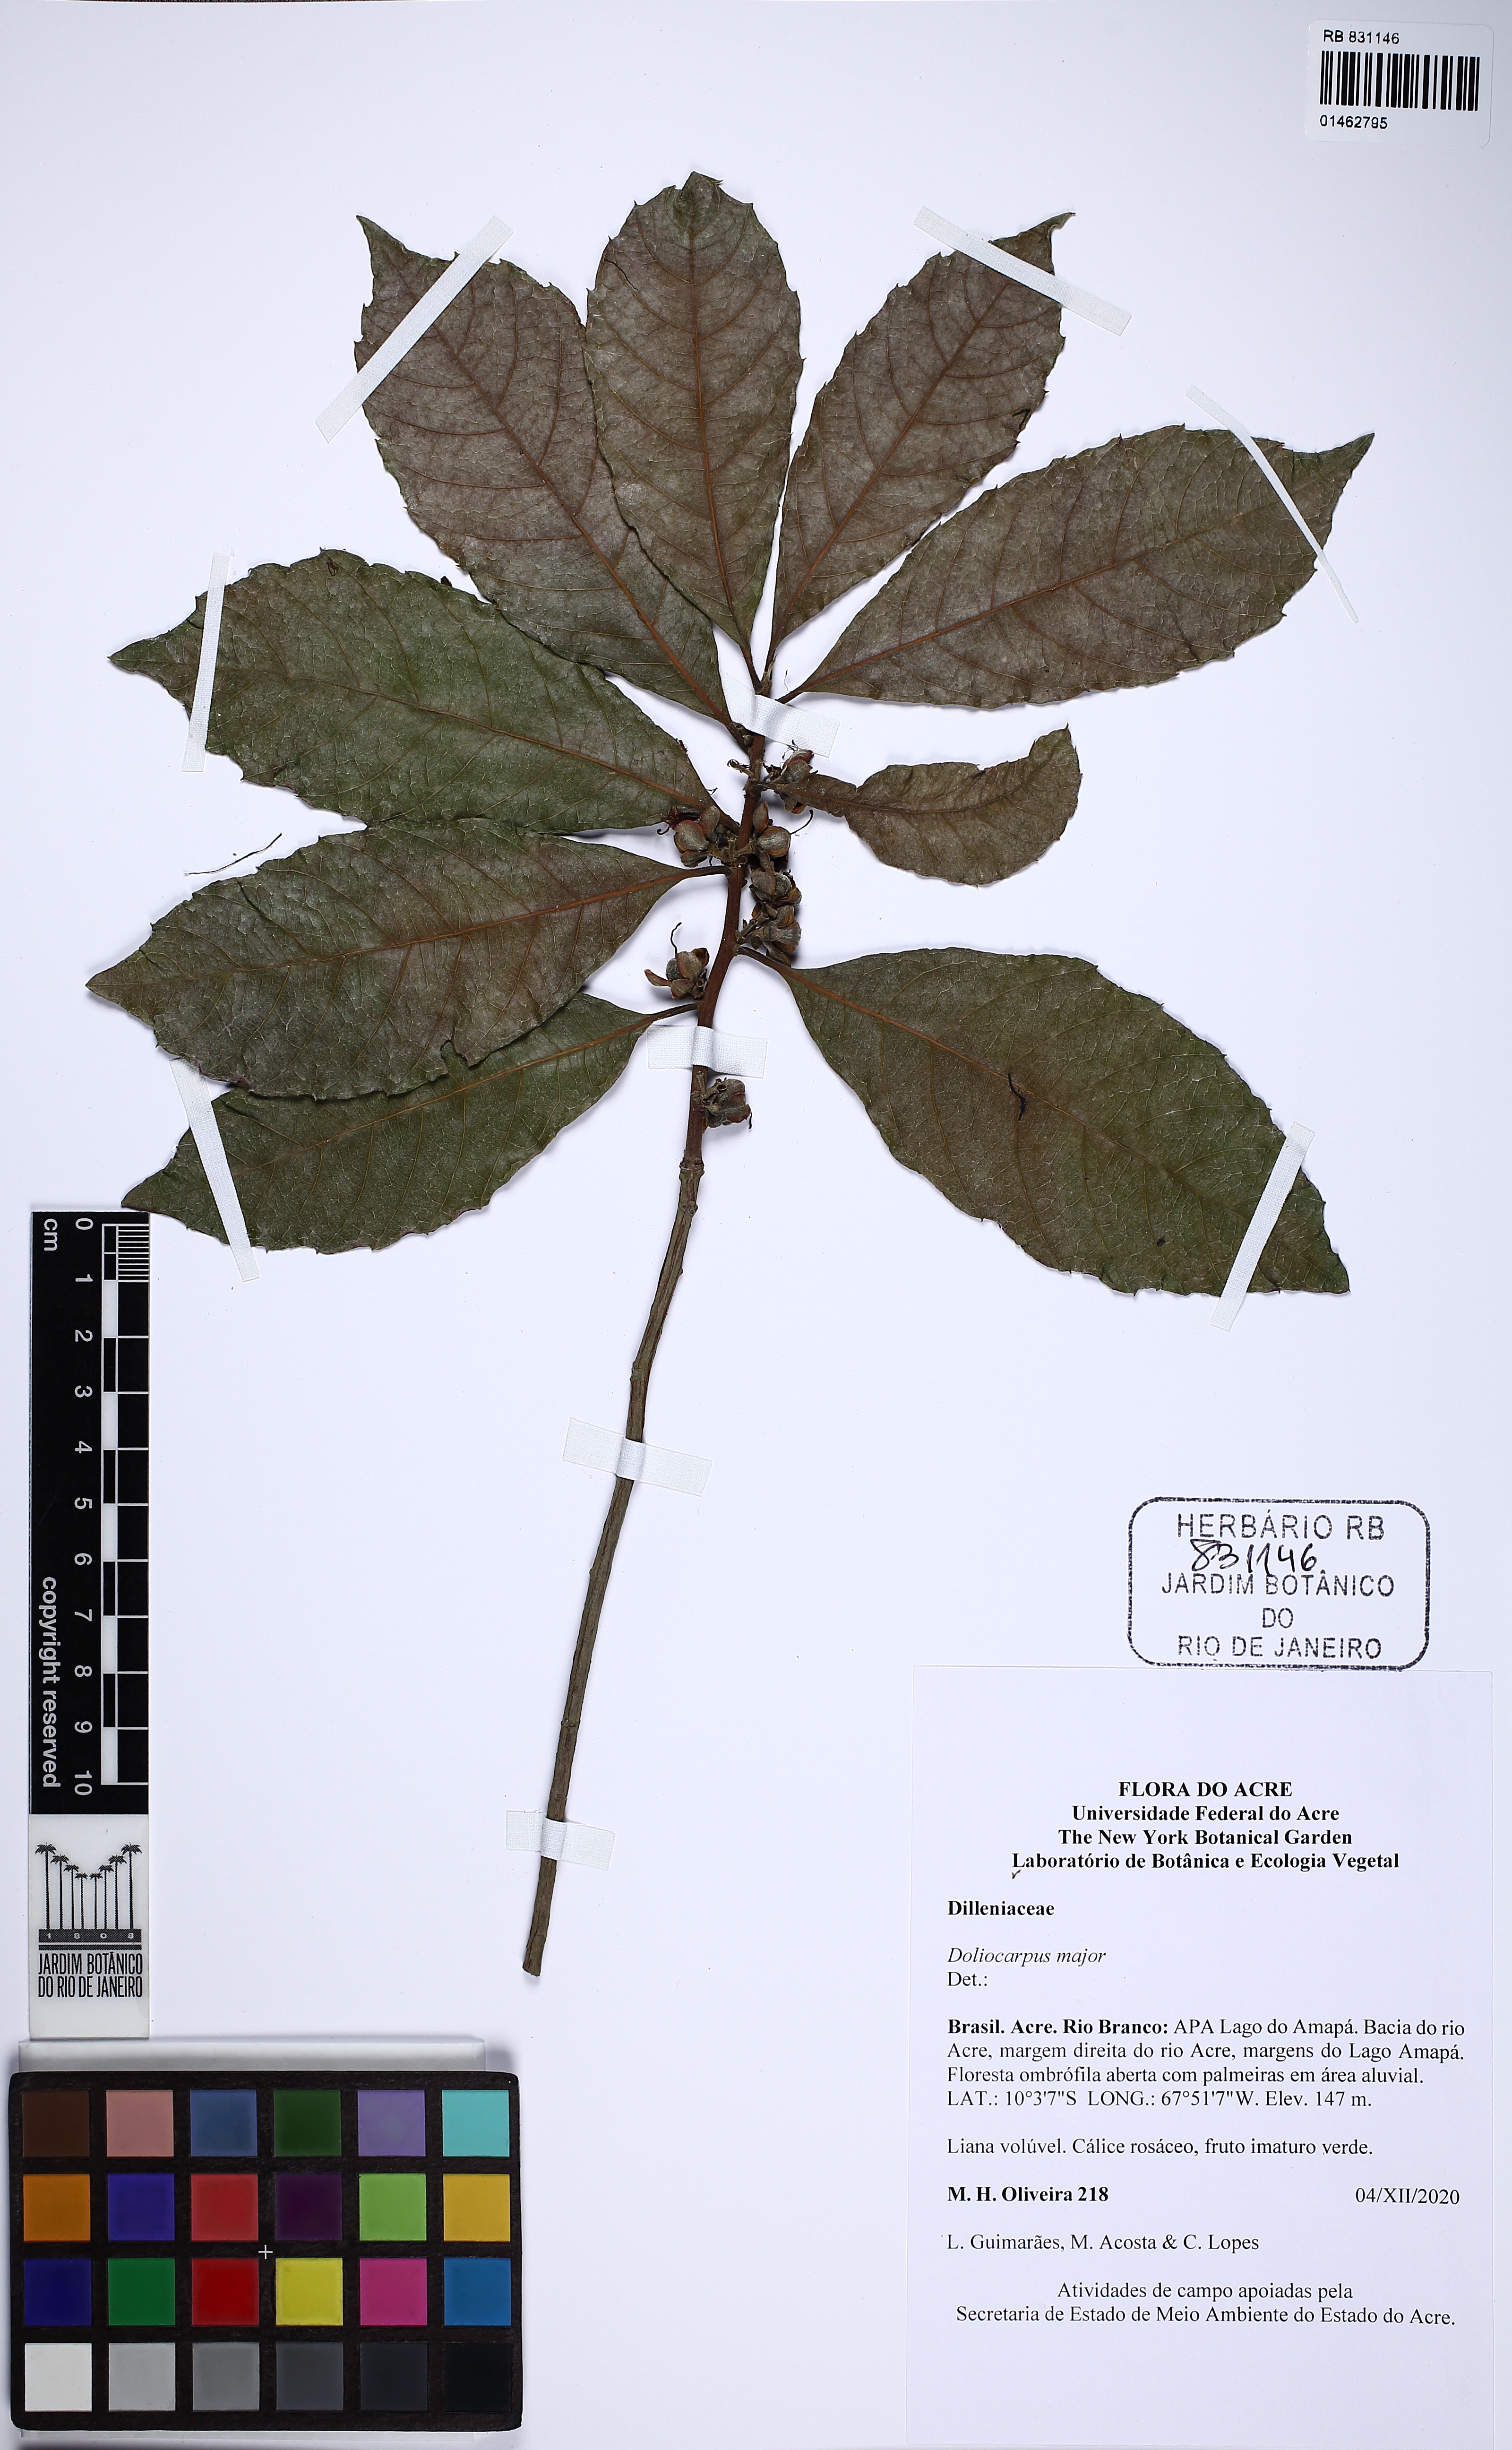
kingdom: Plantae
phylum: Tracheophyta
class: Magnoliopsida
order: Dilleniales
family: Dilleniaceae
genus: Doliocarpus
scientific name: Doliocarpus major
